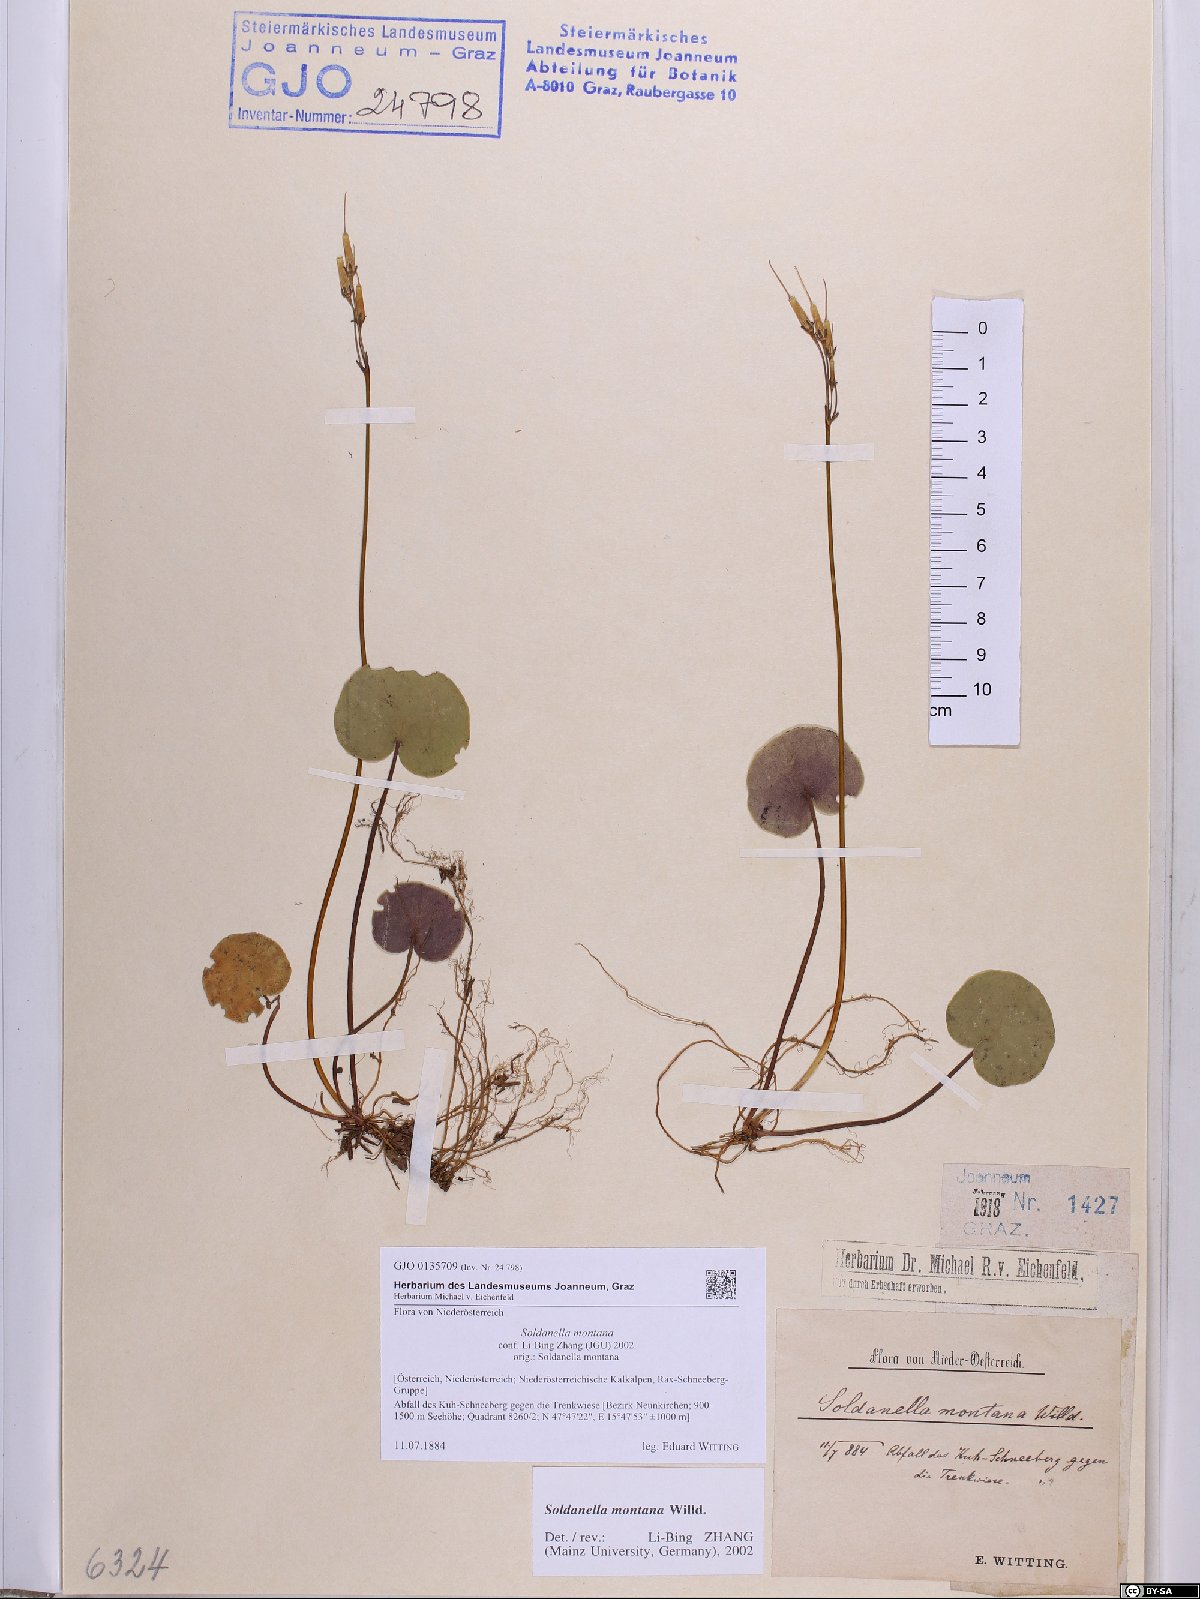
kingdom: Plantae
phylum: Tracheophyta
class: Magnoliopsida
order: Ericales
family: Primulaceae
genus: Soldanella
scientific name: Soldanella montana
